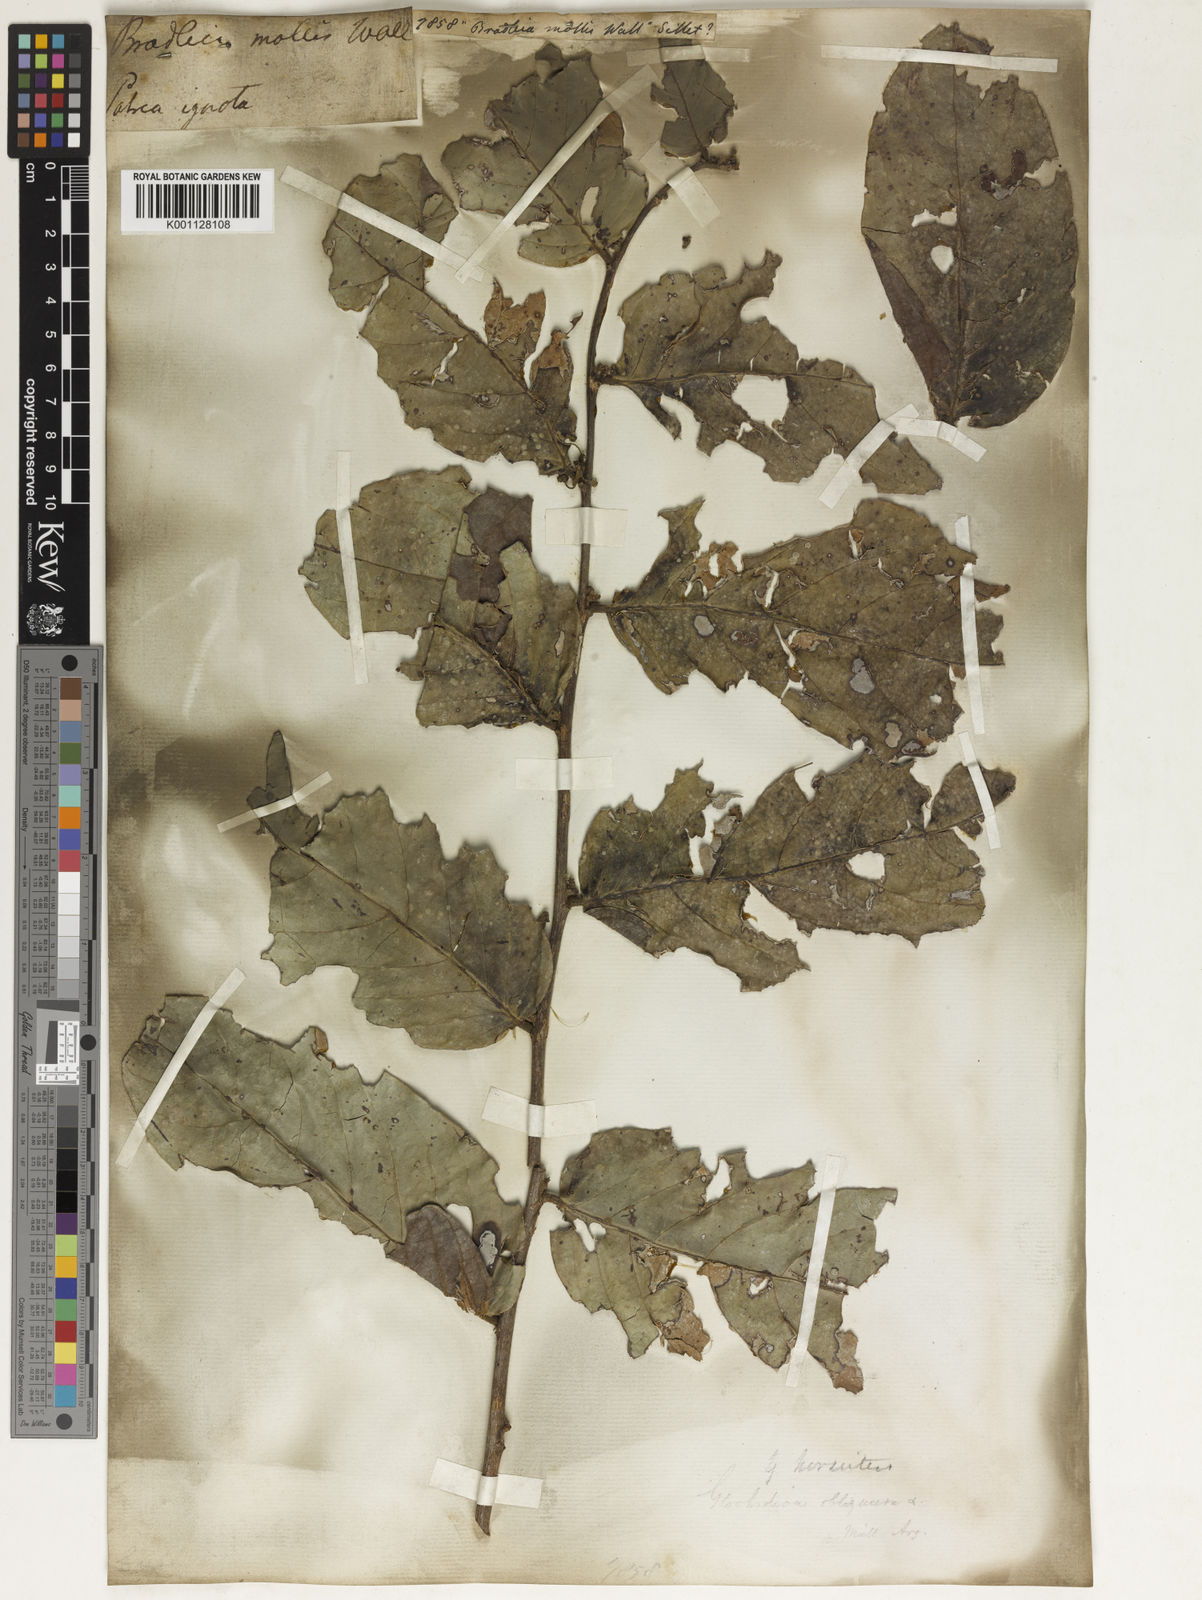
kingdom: Plantae
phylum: Tracheophyta
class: Magnoliopsida
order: Malpighiales
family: Euphorbiaceae
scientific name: Euphorbiaceae
